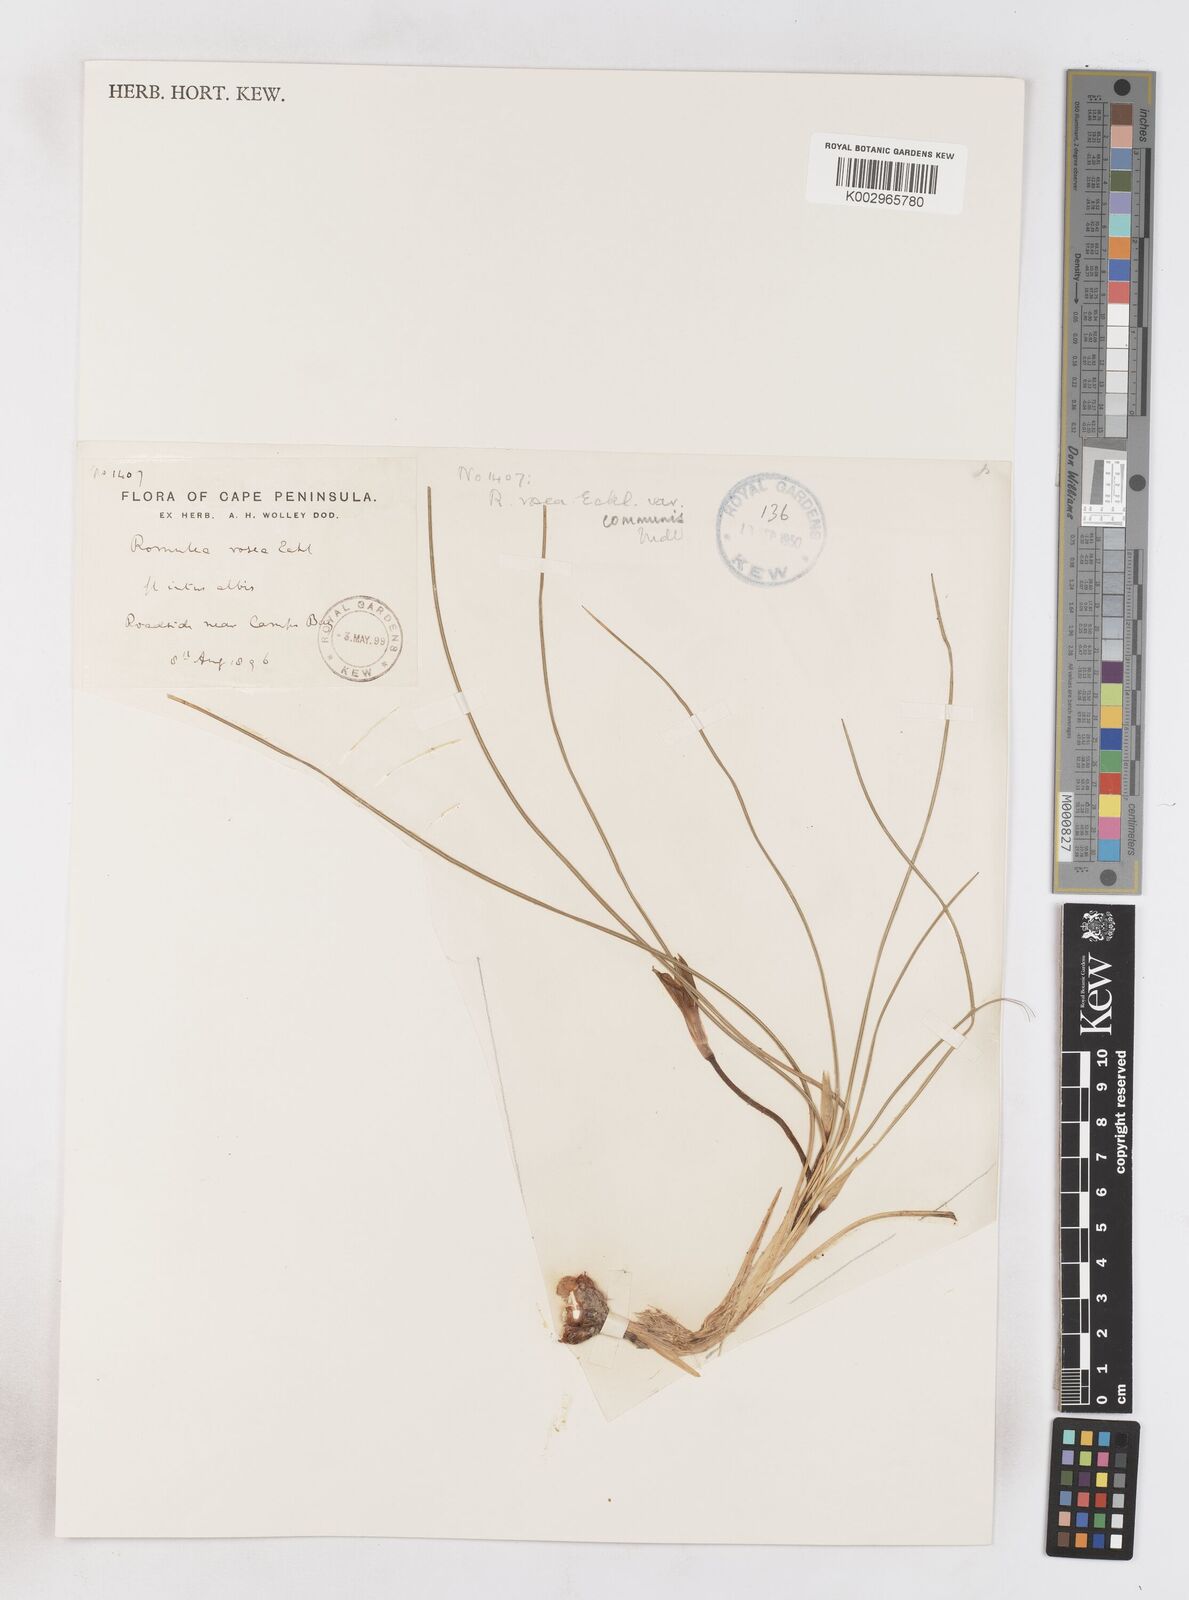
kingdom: Plantae
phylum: Tracheophyta
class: Liliopsida
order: Asparagales
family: Iridaceae
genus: Romulea
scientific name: Romulea rosea
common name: Oniongrass
